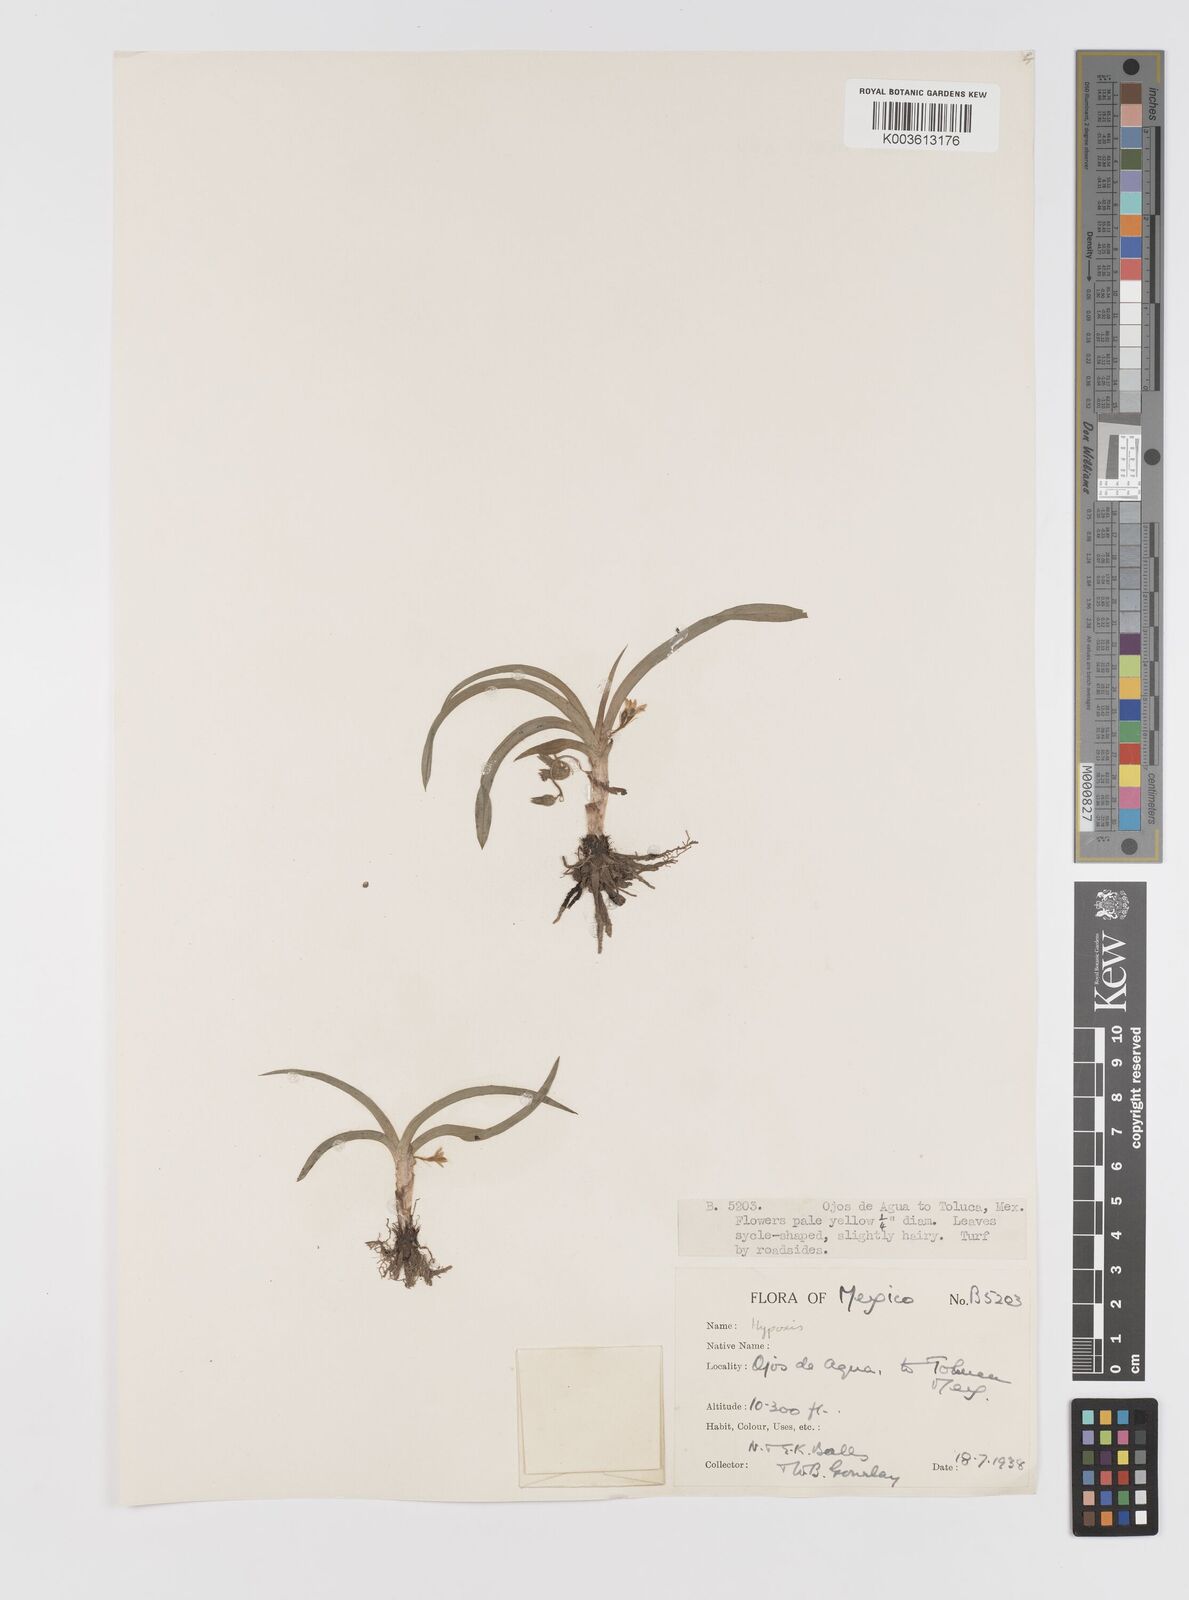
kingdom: Plantae
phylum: Tracheophyta
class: Liliopsida
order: Asparagales
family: Hypoxidaceae
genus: Hypoxis
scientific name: Hypoxis
